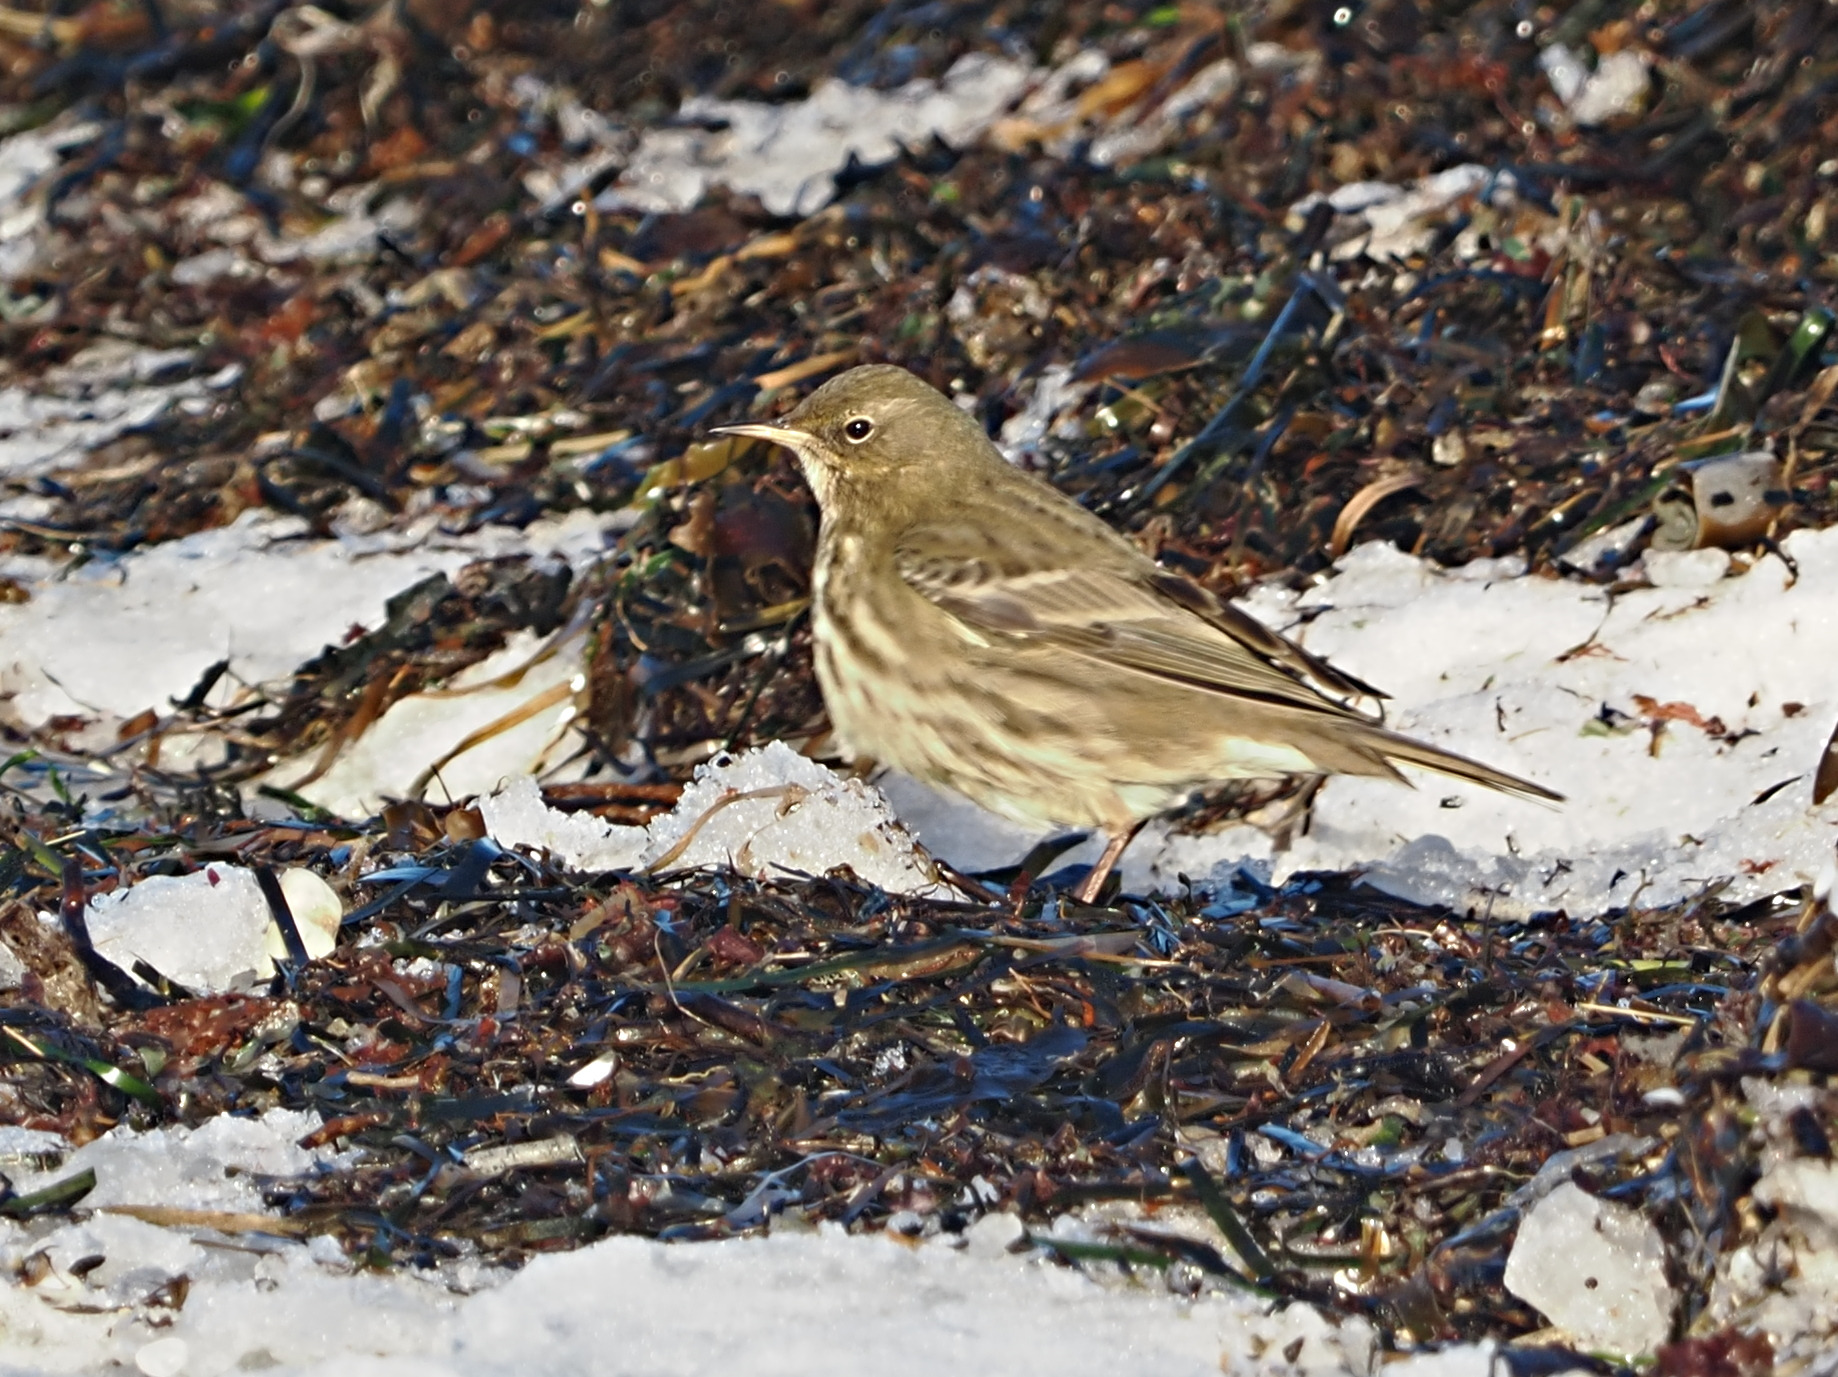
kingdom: Animalia
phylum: Chordata
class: Aves
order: Passeriformes
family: Motacillidae
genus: Anthus
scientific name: Anthus petrosus
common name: Skærpiber
